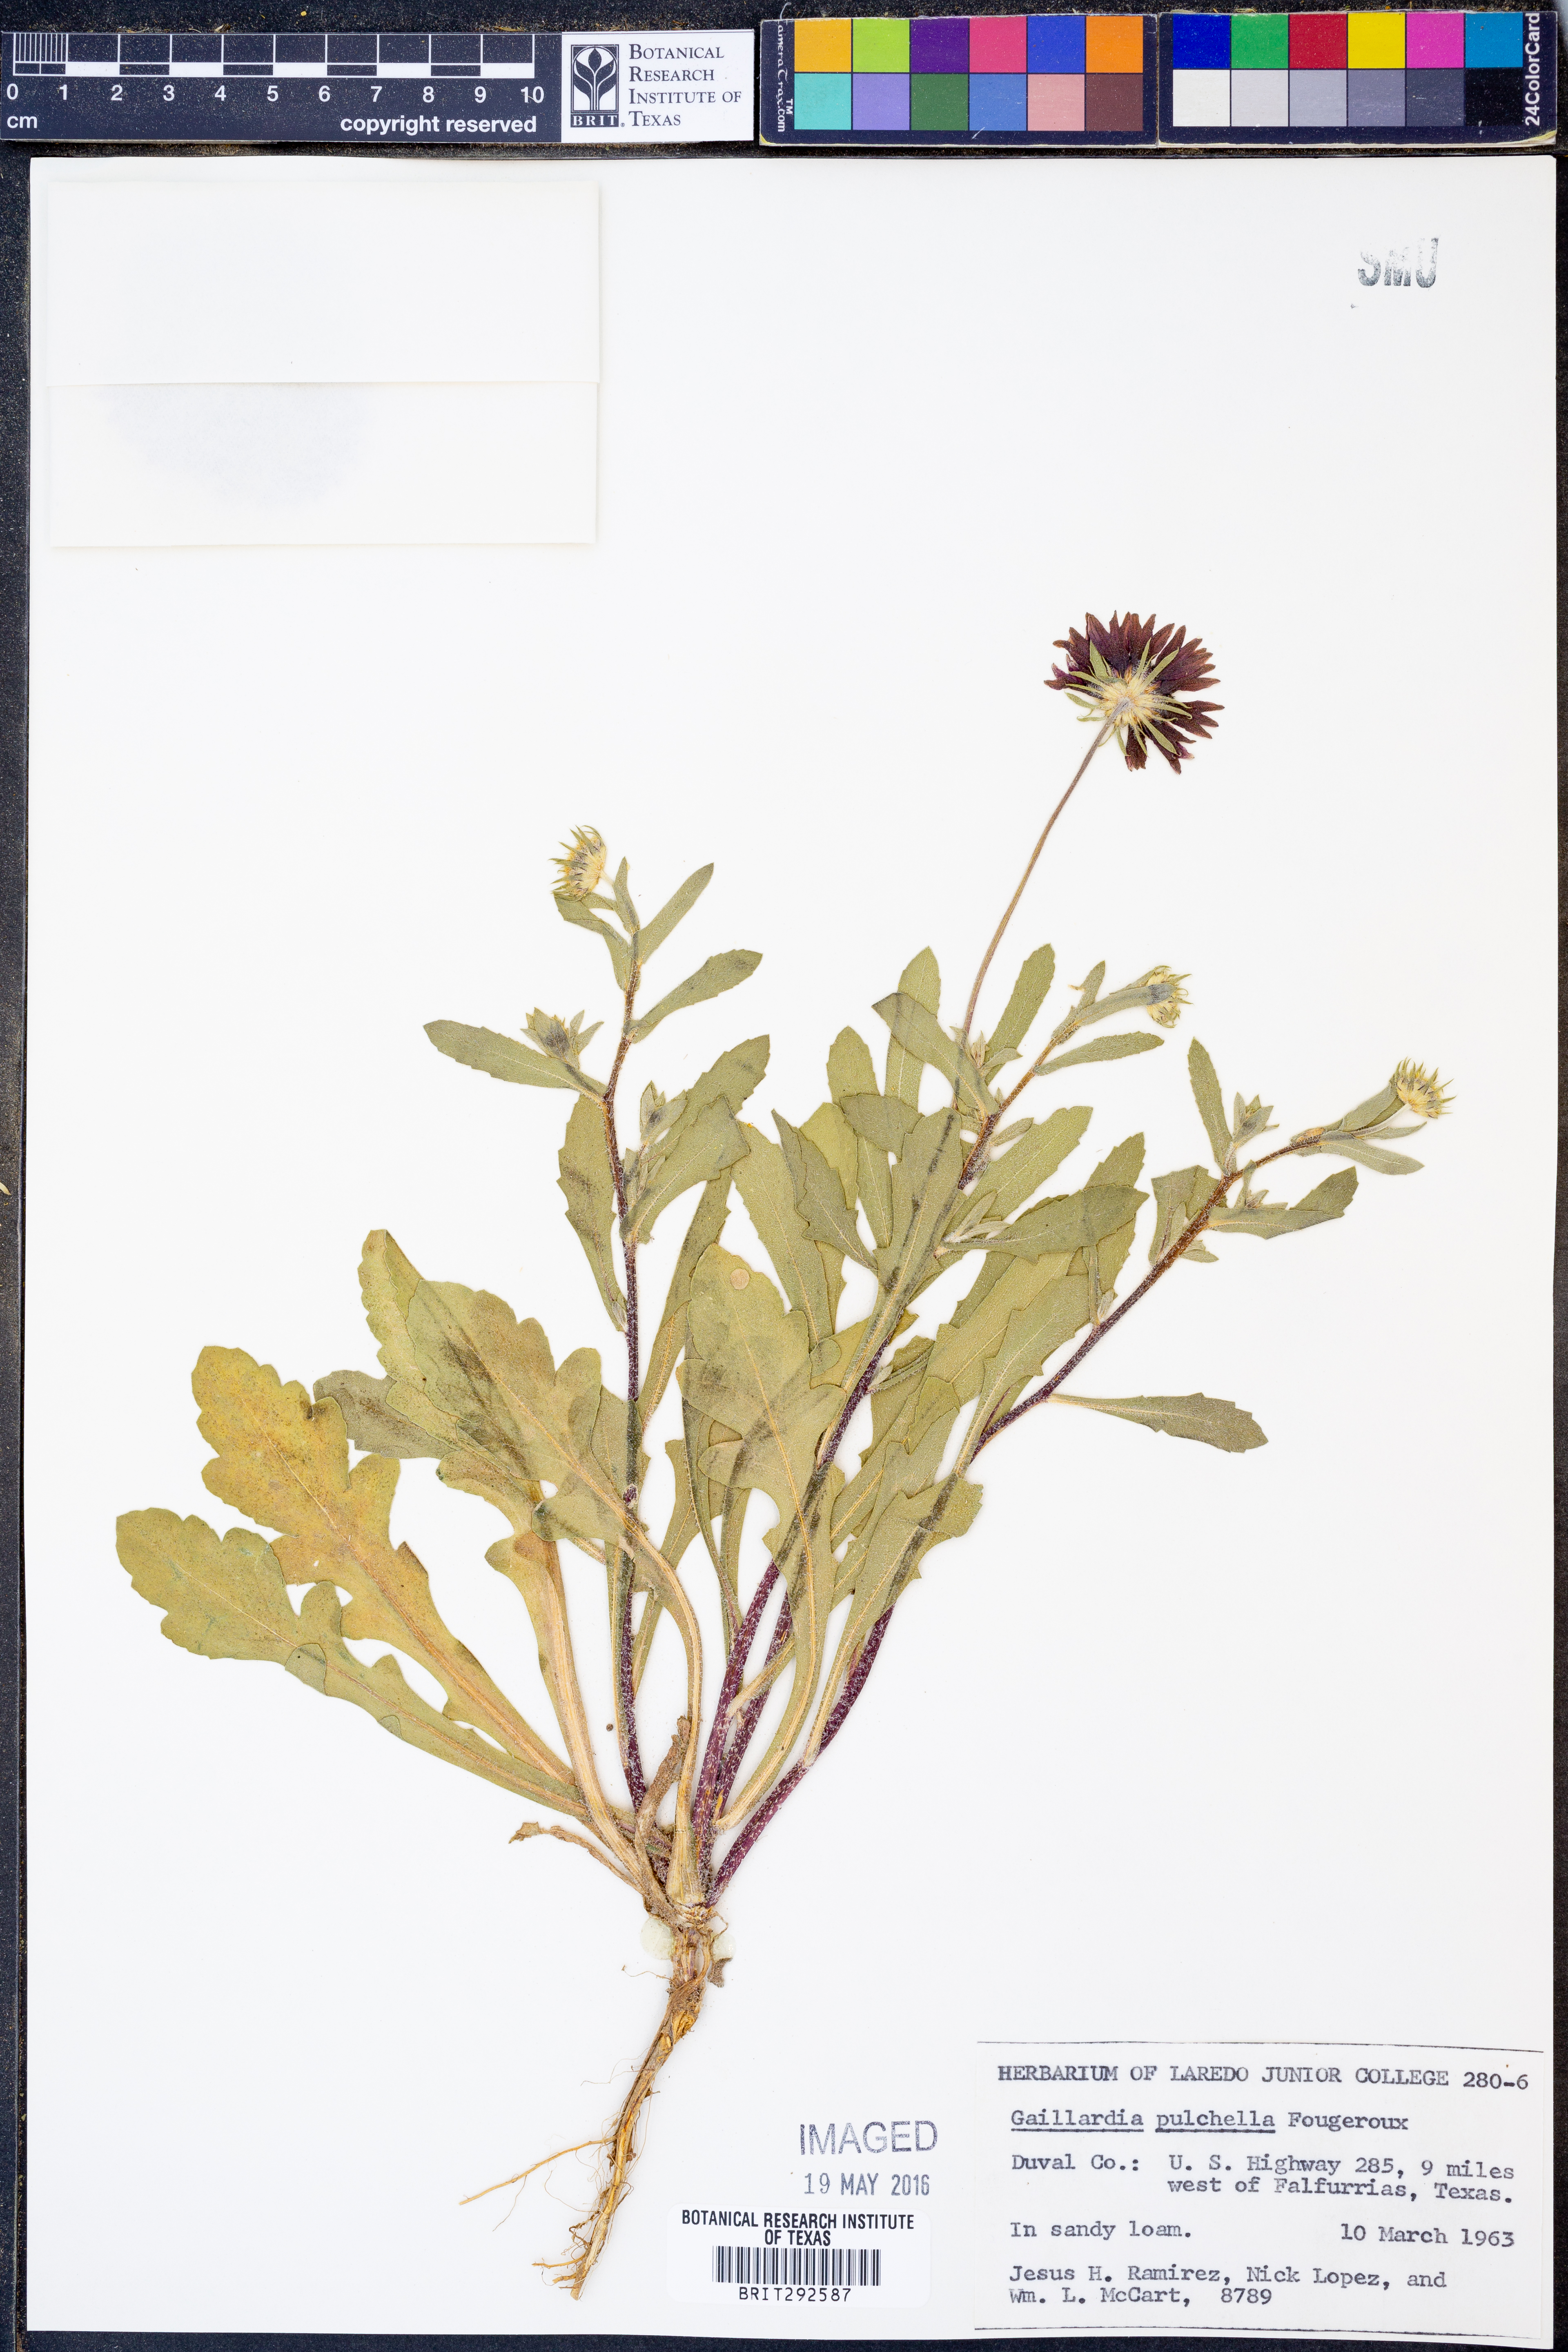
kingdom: Plantae
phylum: Tracheophyta
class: Magnoliopsida
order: Asterales
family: Asteraceae
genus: Gaillardia
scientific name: Gaillardia pulchella
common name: Firewheel
